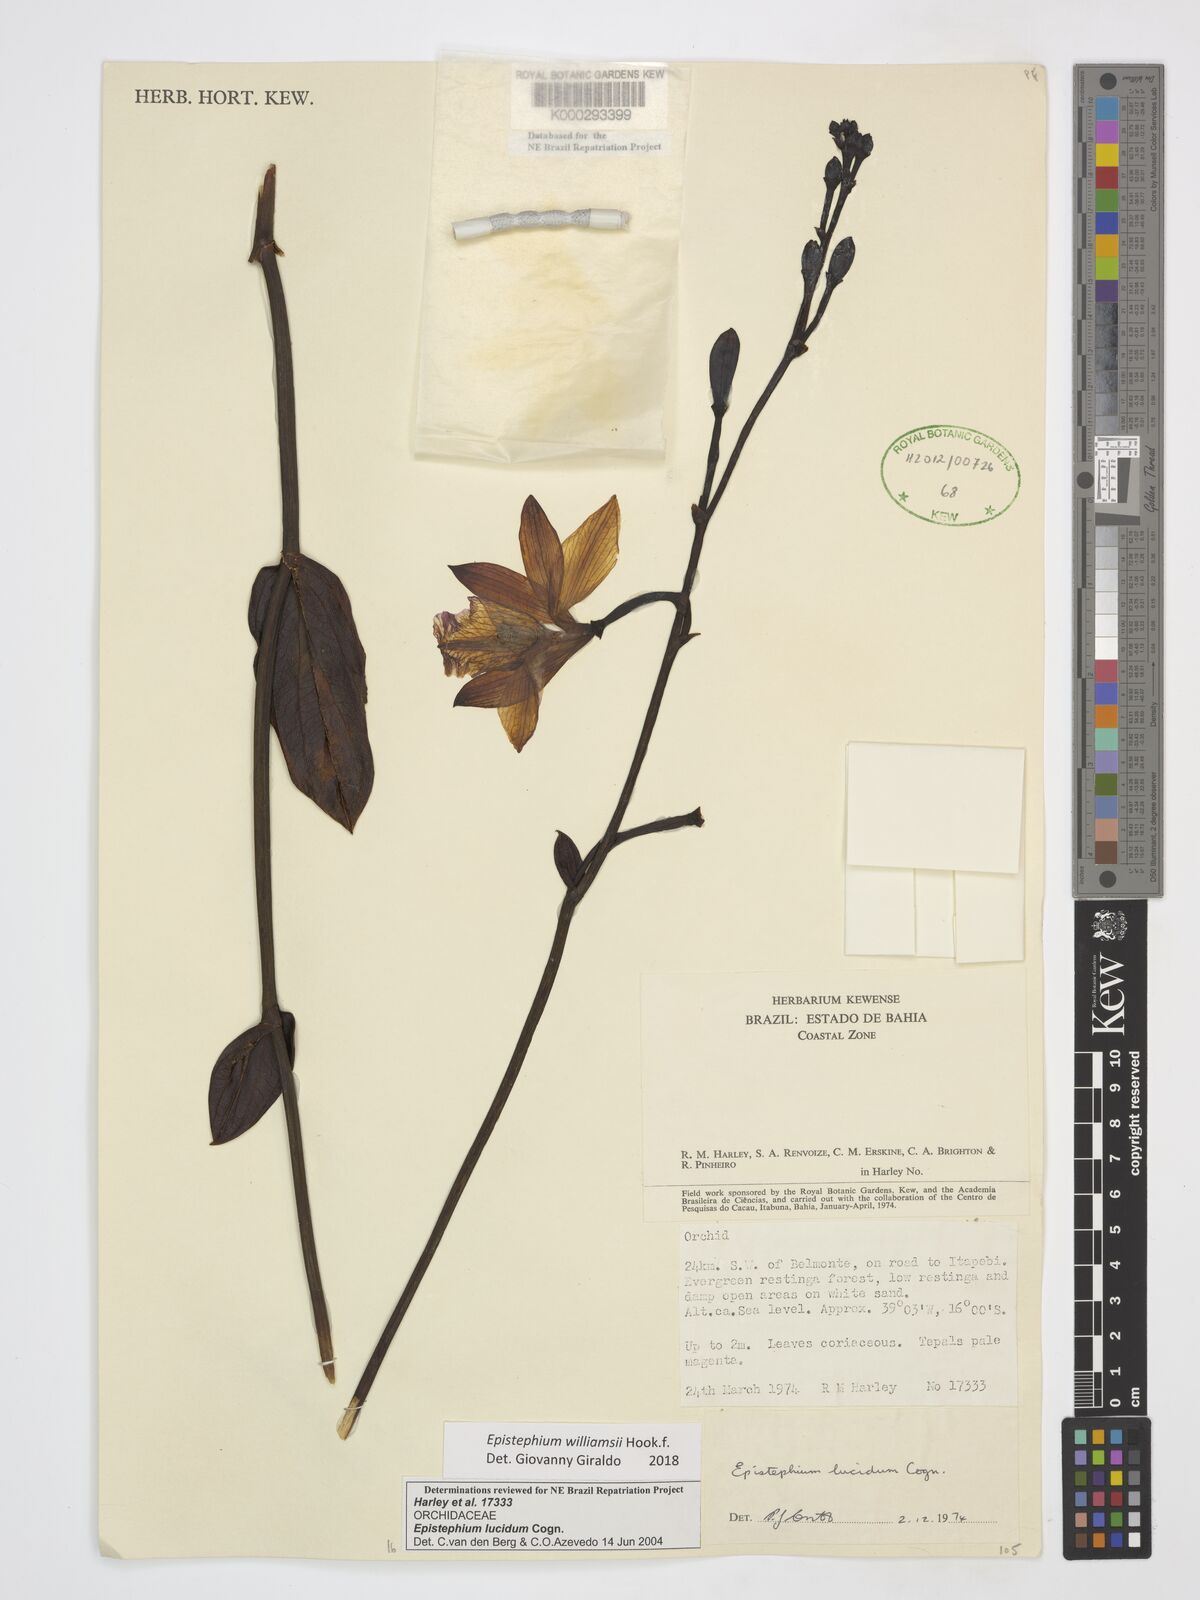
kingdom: Plantae
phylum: Tracheophyta
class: Liliopsida
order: Asparagales
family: Orchidaceae
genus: Epistephium
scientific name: Epistephium williamsii
